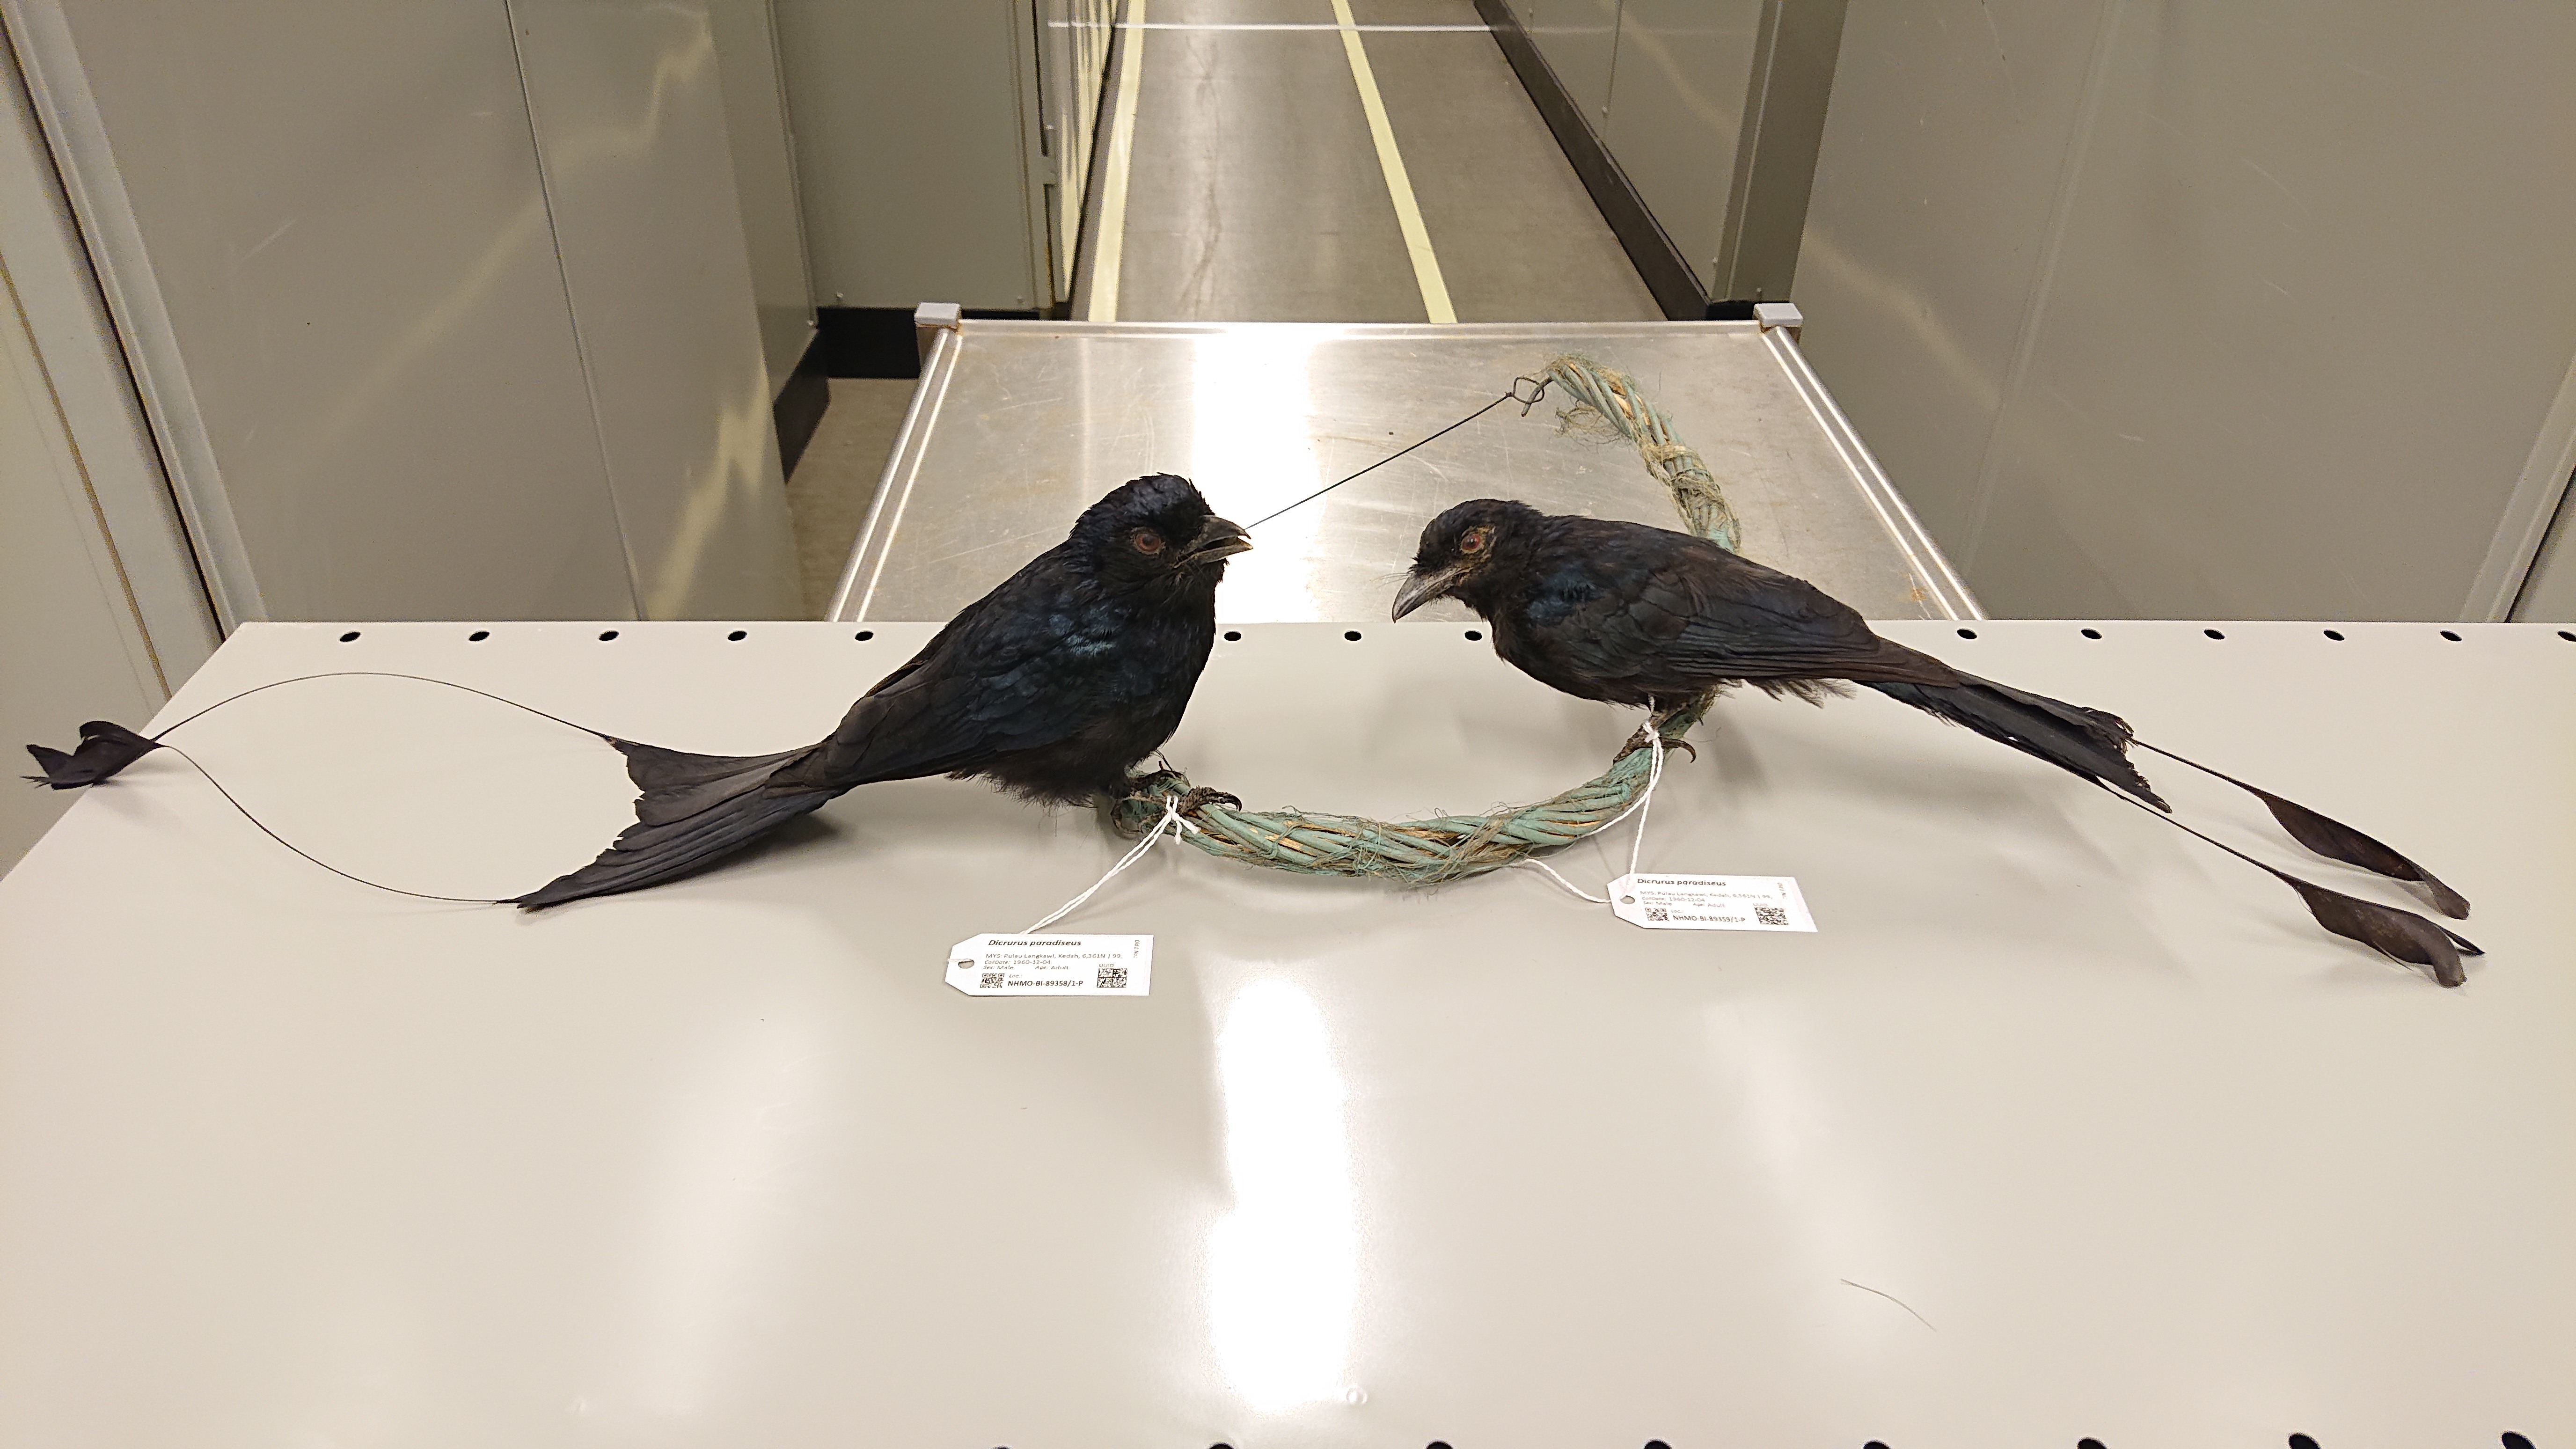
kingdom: Animalia
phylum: Chordata
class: Aves
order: Passeriformes
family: Dicruridae
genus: Dicrurus
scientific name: Dicrurus paradiseus
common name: Greater racket-tailed drongo
